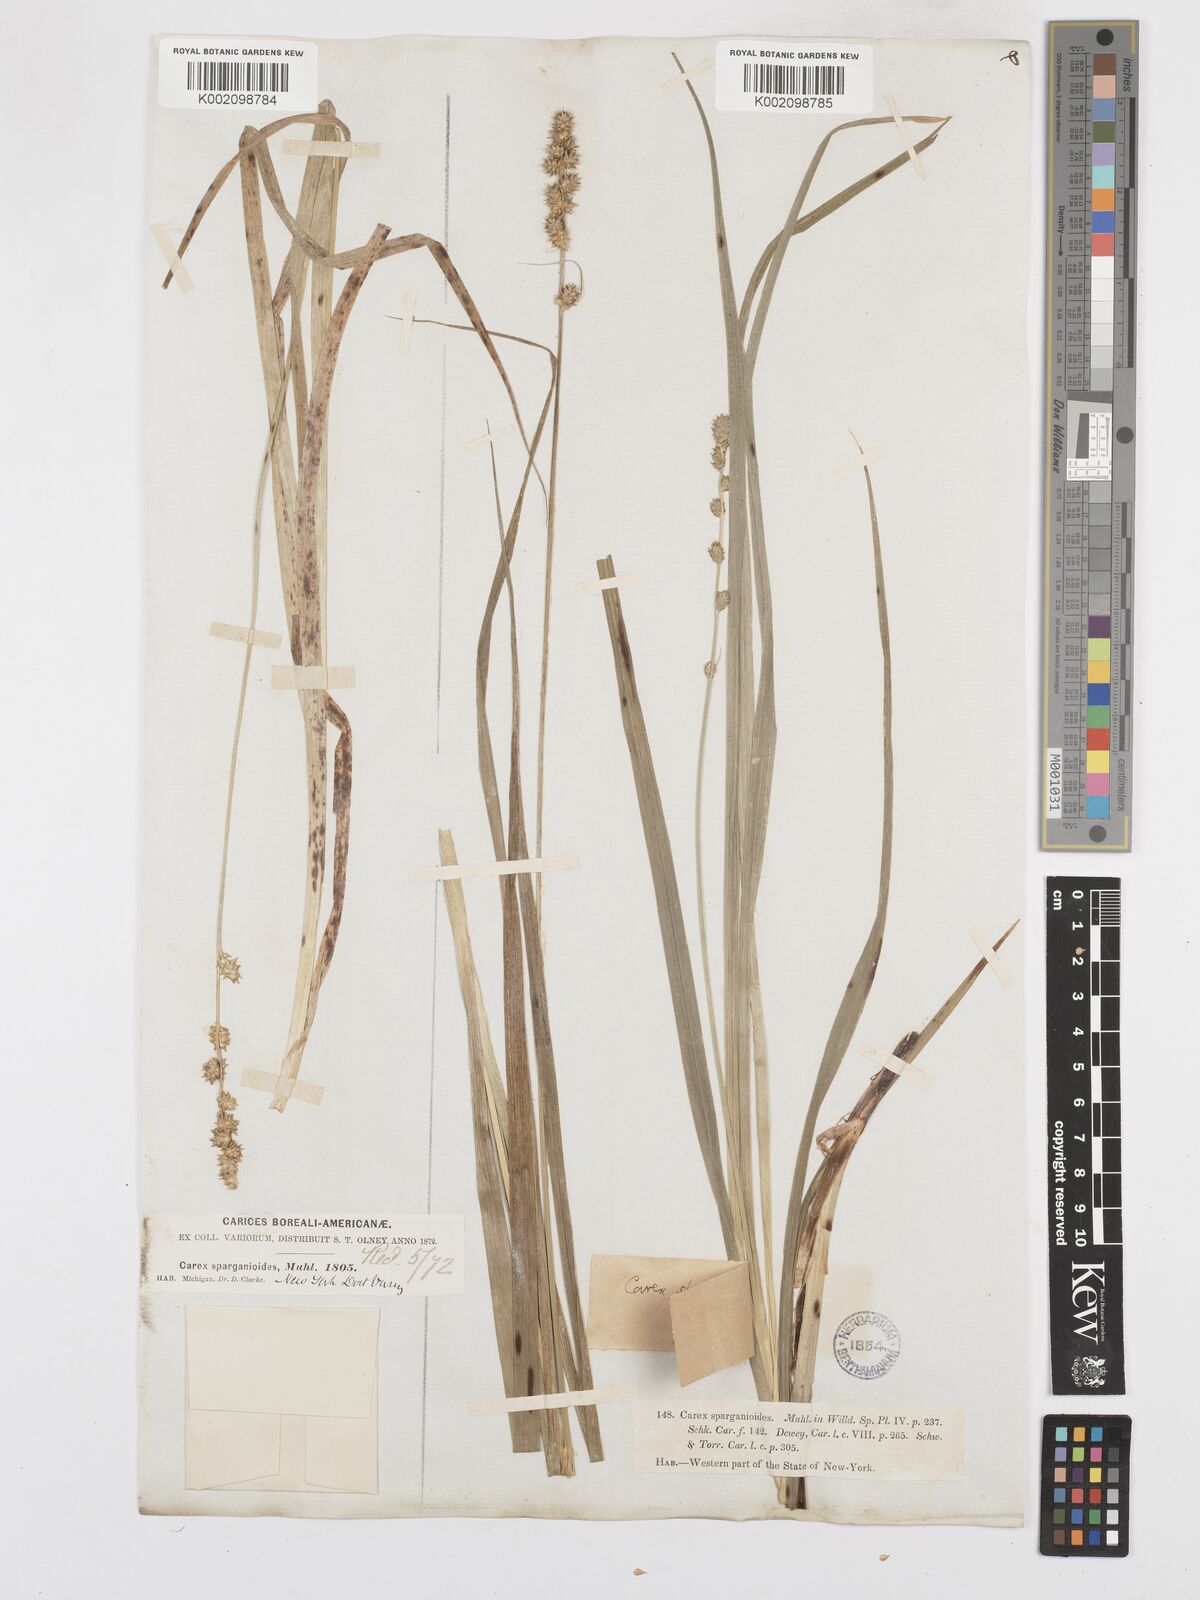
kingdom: Plantae
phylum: Tracheophyta
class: Liliopsida
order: Poales
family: Cyperaceae
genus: Carex
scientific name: Carex sparganioides
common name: Burreed sedge
